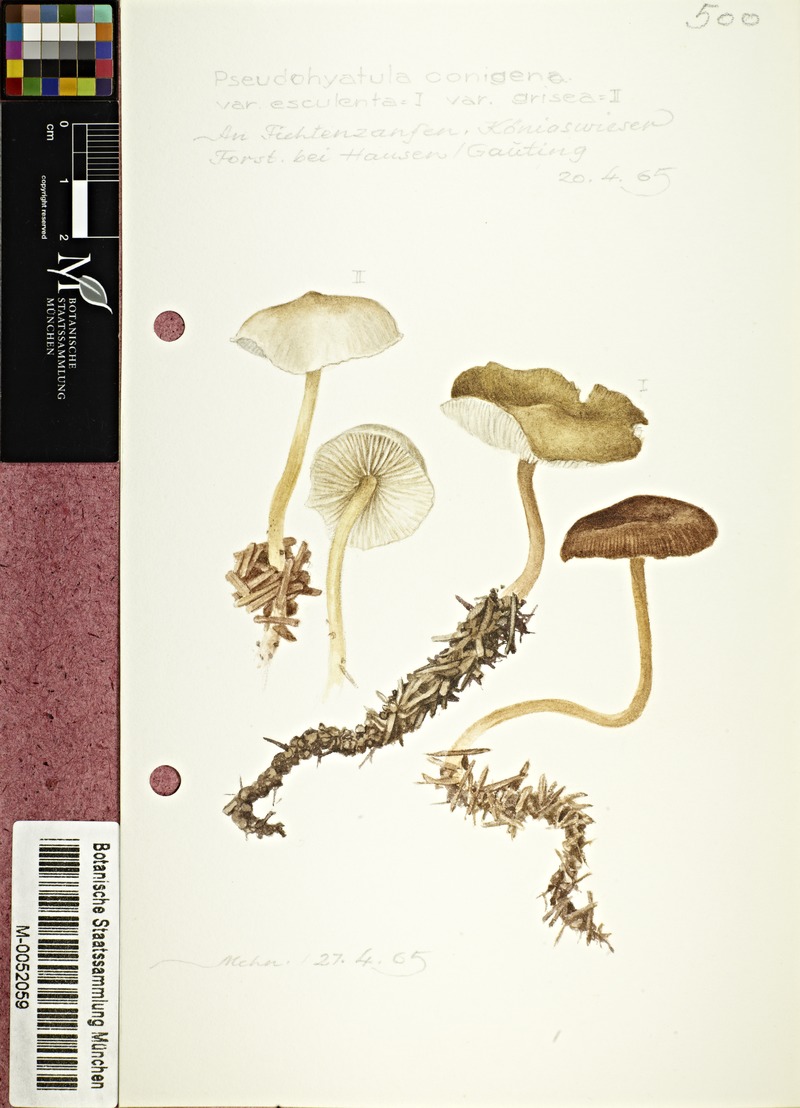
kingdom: Fungi
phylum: Basidiomycota
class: Agaricomycetes
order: Agaricales
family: Physalacriaceae
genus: Strobilurus
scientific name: Strobilurus esculentus
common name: Sprucecone cap
